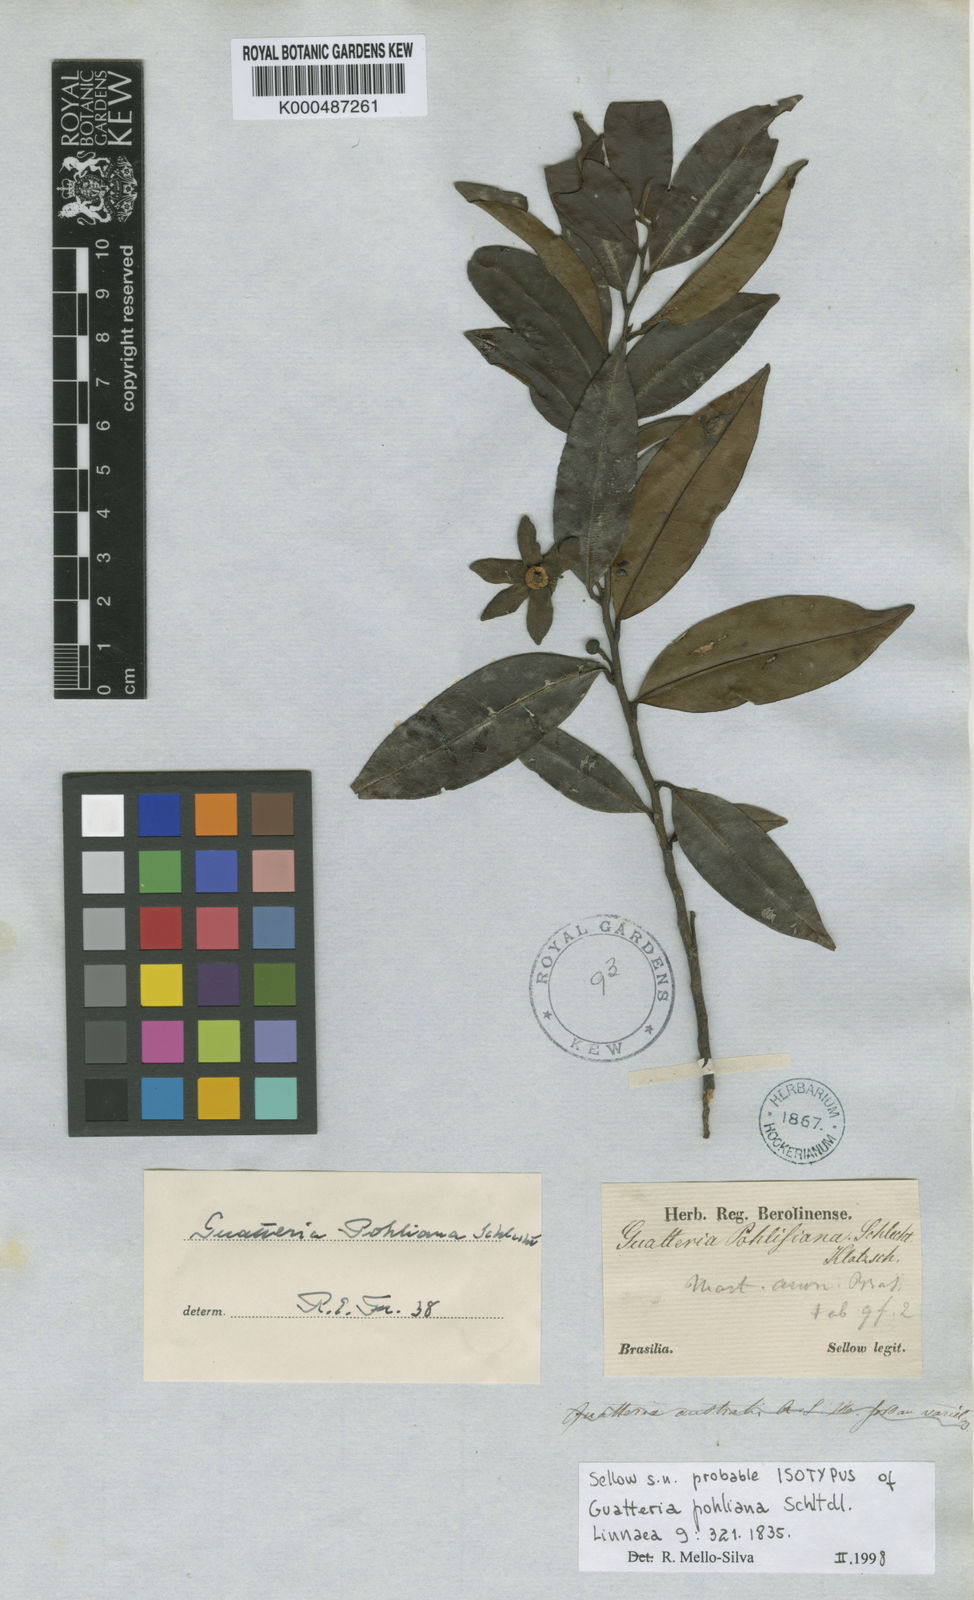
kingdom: Plantae
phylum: Tracheophyta
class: Magnoliopsida
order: Magnoliales
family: Annonaceae
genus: Guatteria
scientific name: Guatteria pohliana
